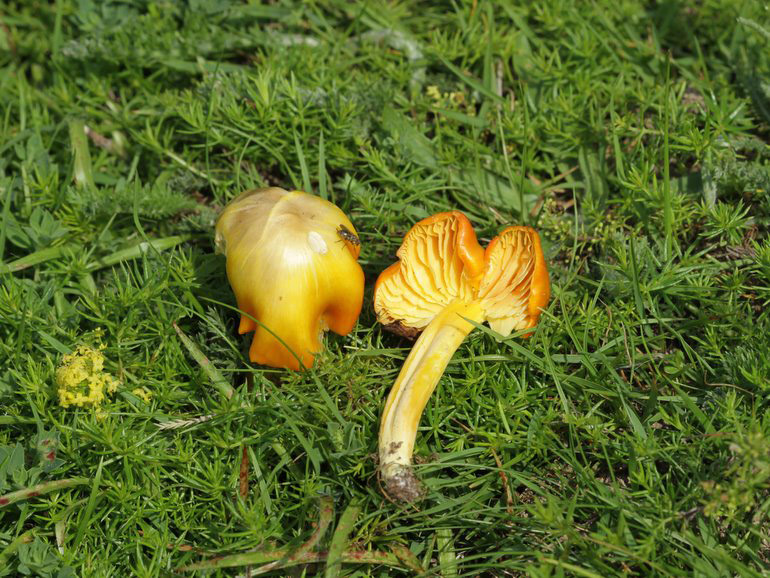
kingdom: Fungi
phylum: Basidiomycota
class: Agaricomycetes
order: Agaricales
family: Hygrophoraceae
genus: Hygrocybe
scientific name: Hygrocybe chlorophana
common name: gul vokshat
